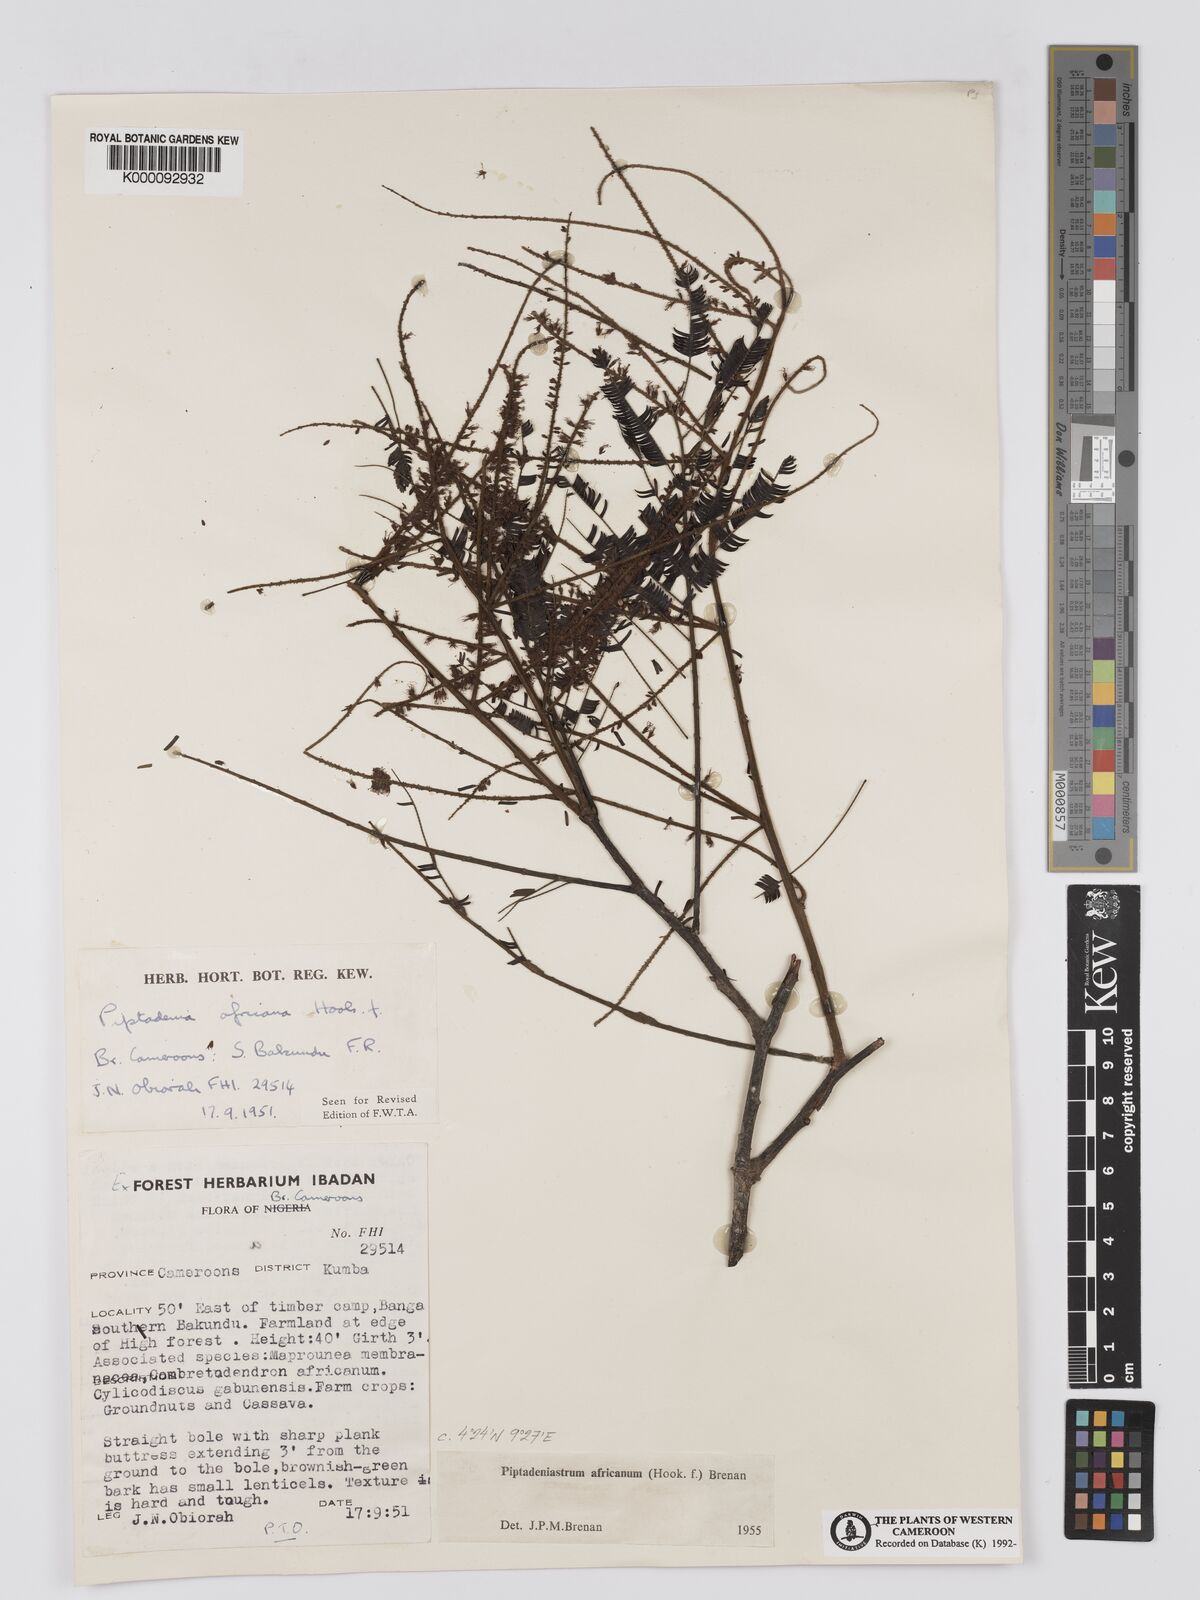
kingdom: Plantae
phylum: Tracheophyta
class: Magnoliopsida
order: Fabales
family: Fabaceae
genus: Piptadeniastrum
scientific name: Piptadeniastrum africanum
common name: African greenheart
